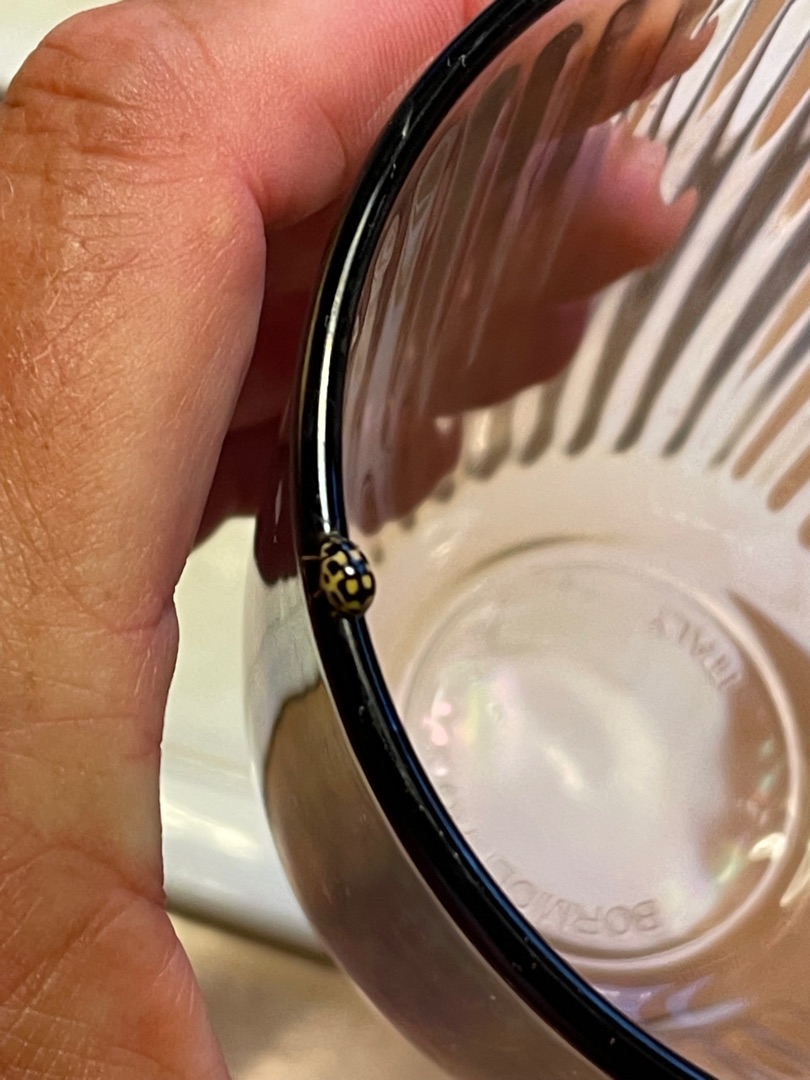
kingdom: Animalia
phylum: Arthropoda
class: Insecta
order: Coleoptera
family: Coccinellidae
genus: Propylaea
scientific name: Propylaea quatuordecimpunctata
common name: Skakbræt
